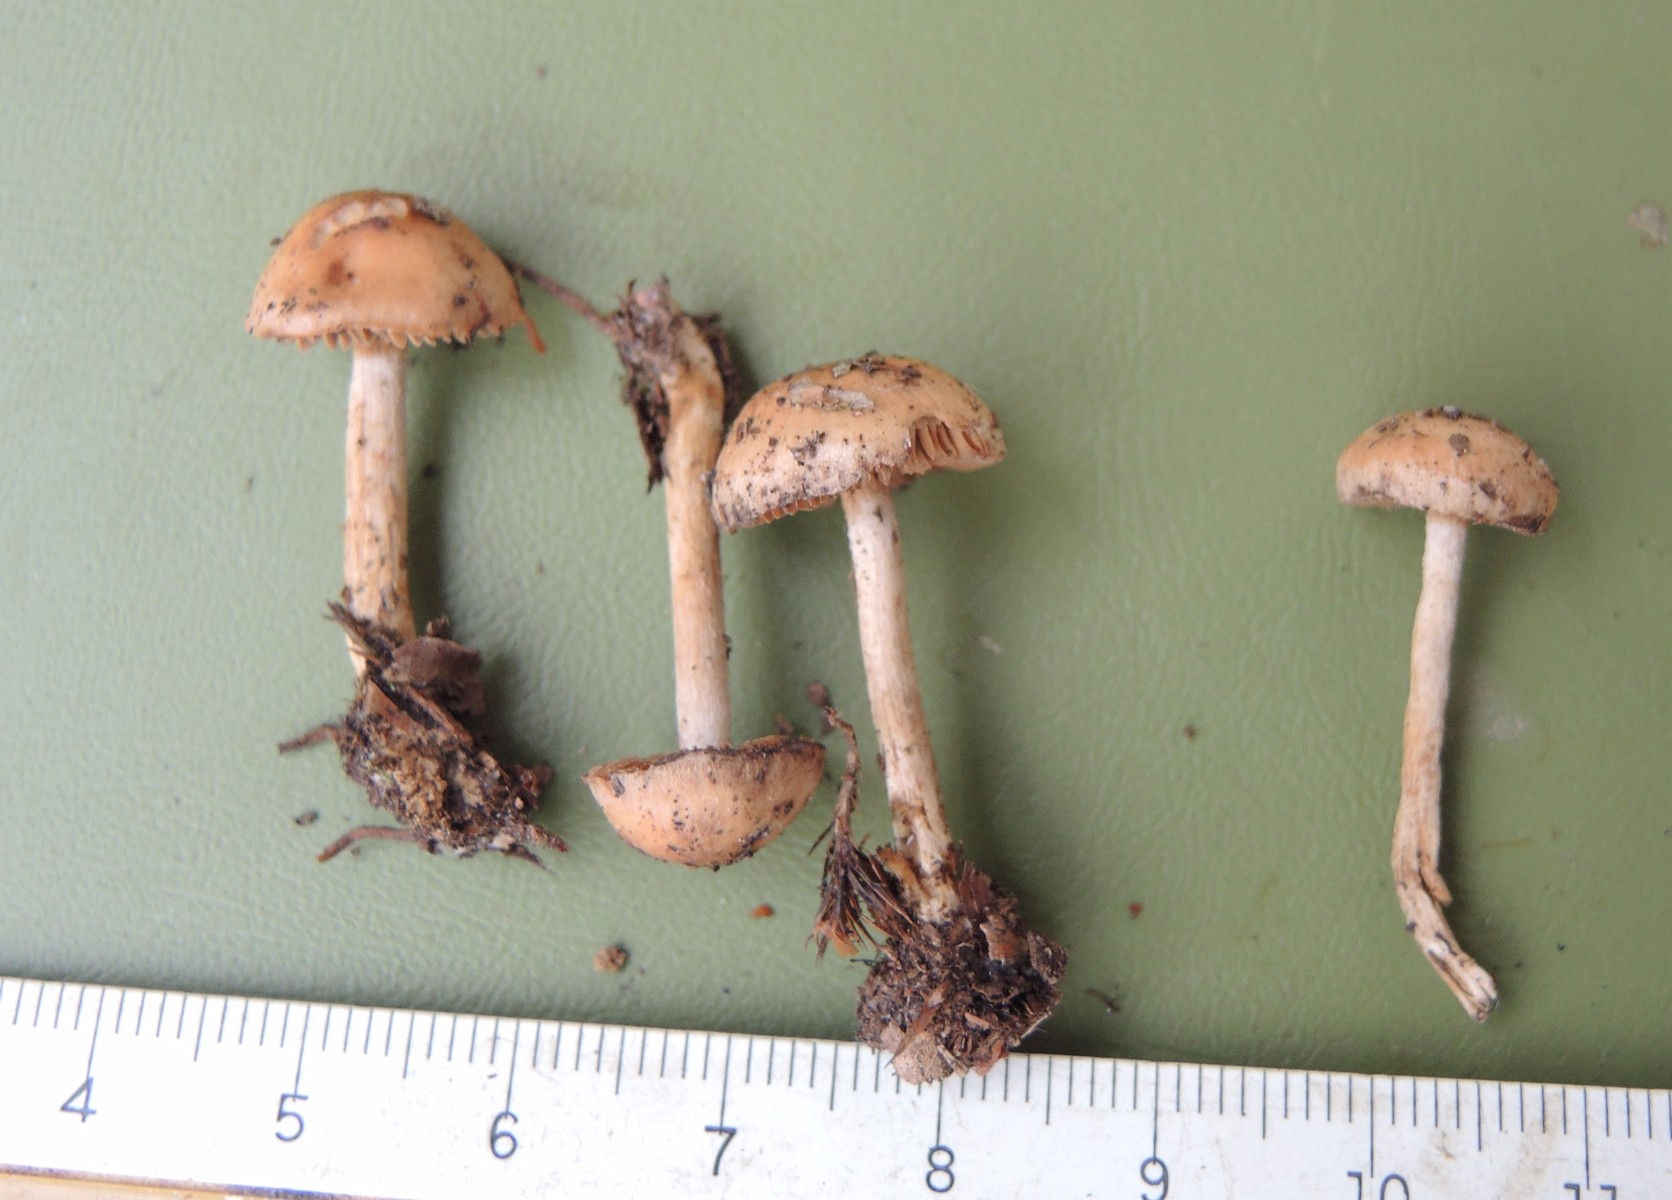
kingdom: Fungi
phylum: Basidiomycota
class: Agaricomycetes
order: Agaricales
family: Hymenogastraceae
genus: Hebeloma
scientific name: Hebeloma birrus
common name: rodslående tåreblad
